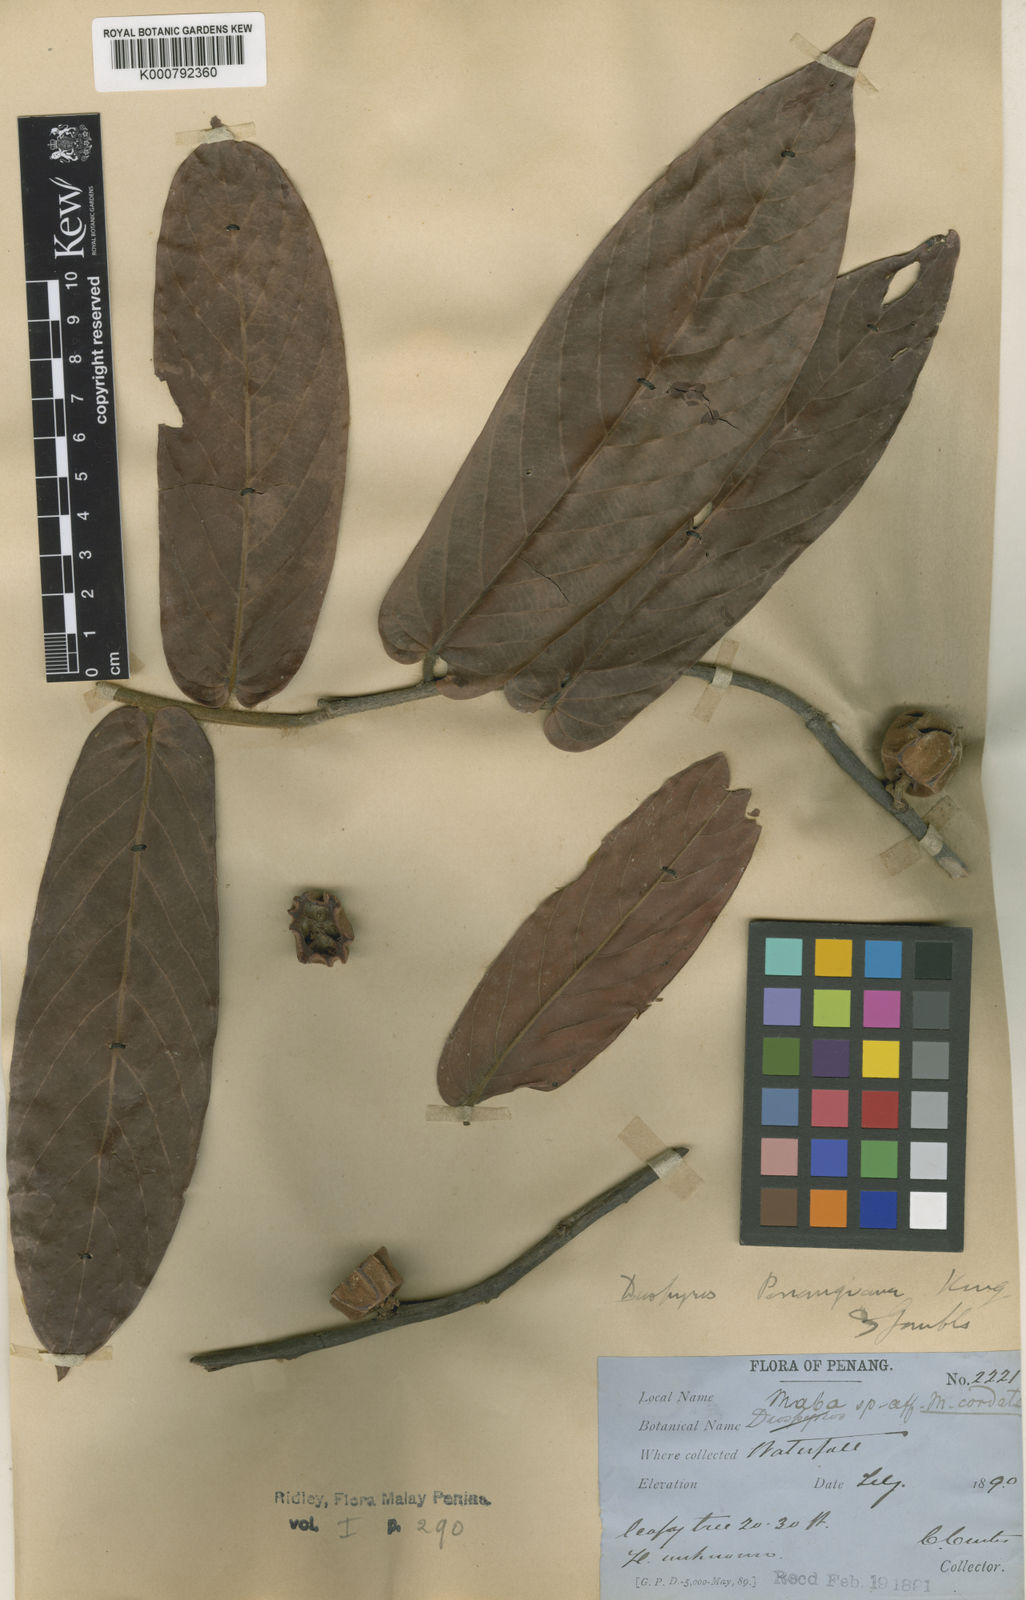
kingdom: Plantae
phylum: Tracheophyta
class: Magnoliopsida
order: Ericales
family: Ebenaceae
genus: Diospyros
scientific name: Diospyros penangiana
